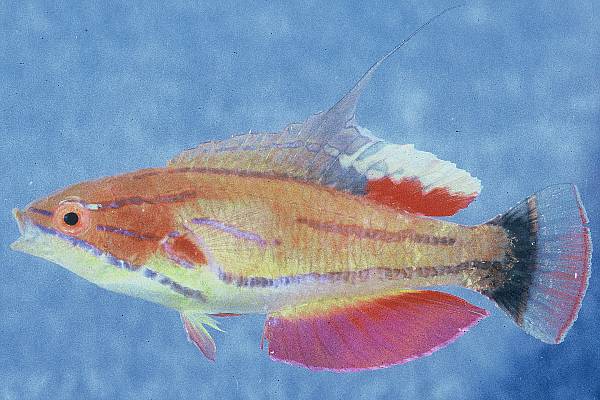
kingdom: Animalia
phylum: Chordata
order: Perciformes
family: Labridae
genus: Paracheilinus
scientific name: Paracheilinus mccoskeri
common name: Mccosker's flasher
